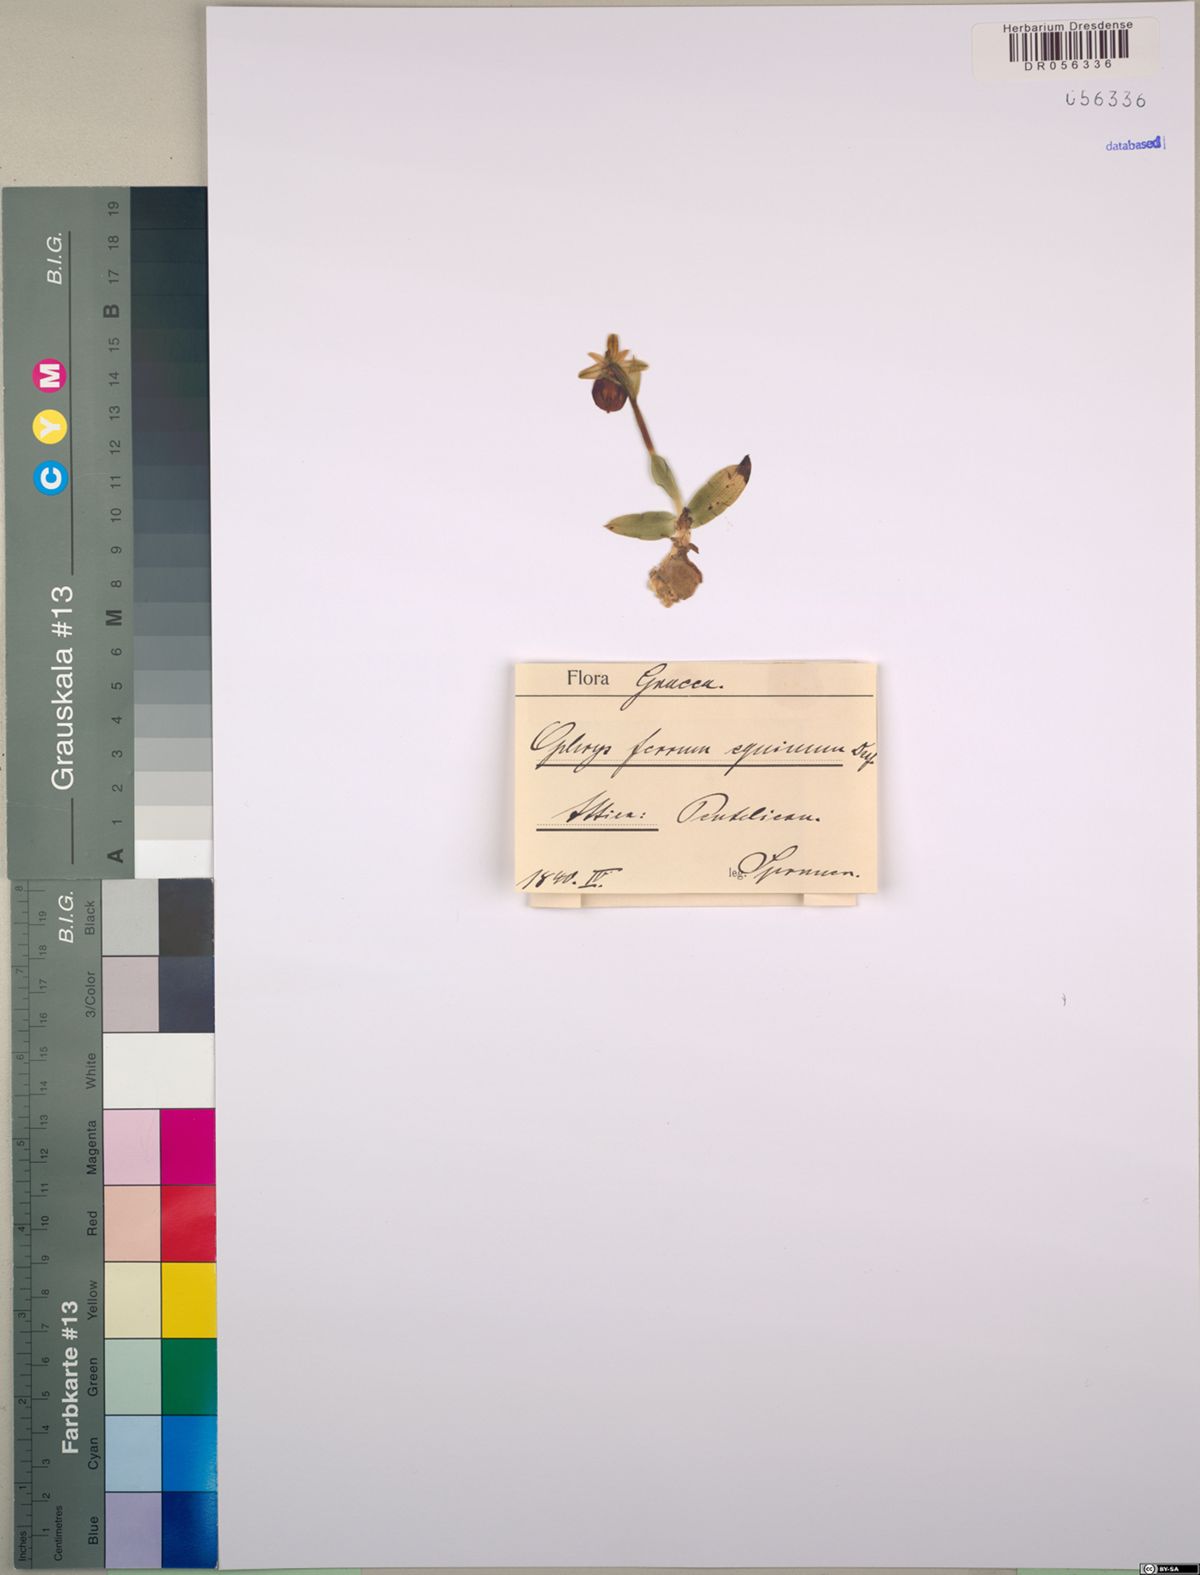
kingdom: Plantae
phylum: Tracheophyta
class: Liliopsida
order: Asparagales
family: Orchidaceae
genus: Ophrys
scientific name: Ophrys ferrum-equinum
